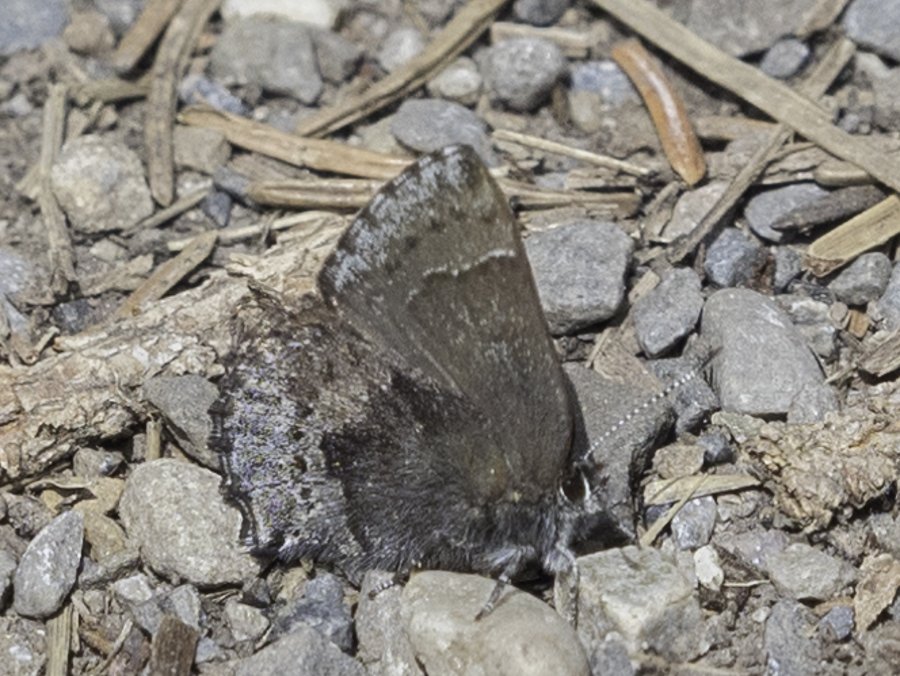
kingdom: Animalia
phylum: Arthropoda
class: Insecta
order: Lepidoptera
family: Lycaenidae
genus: Callophrys
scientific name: Callophrys polios
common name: Hoary Elfin
